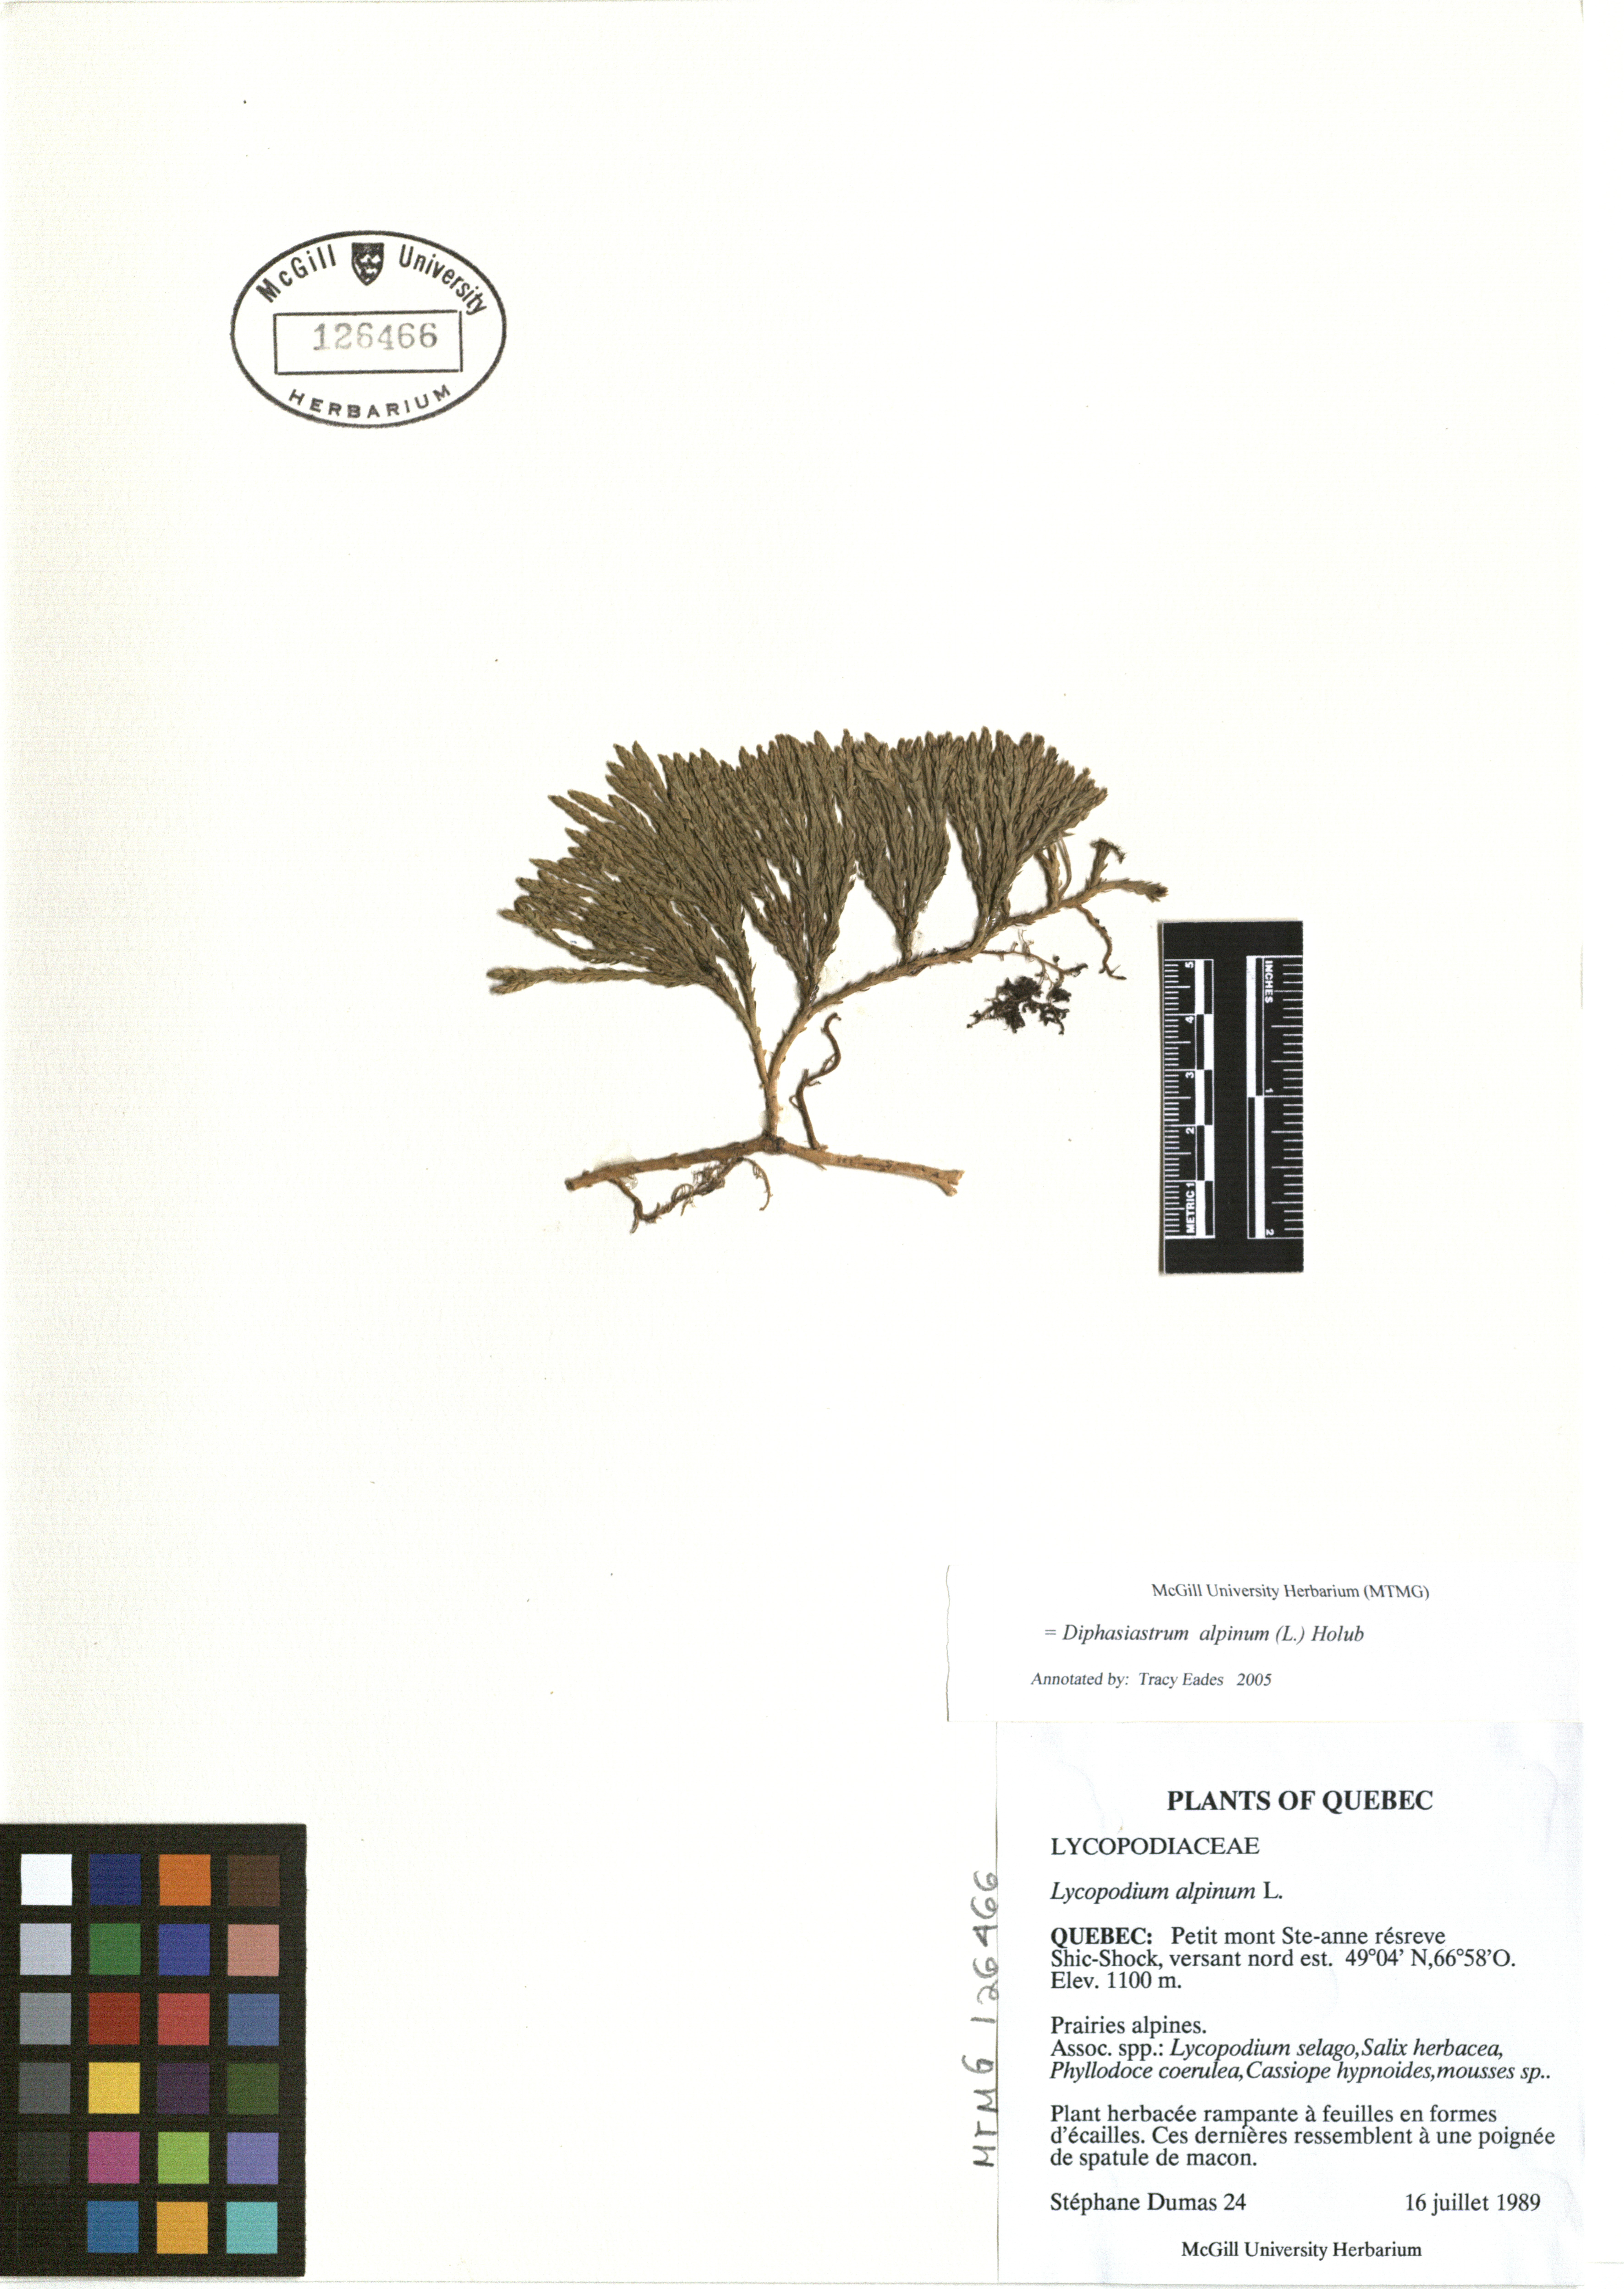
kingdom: Plantae
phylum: Tracheophyta
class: Lycopodiopsida
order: Lycopodiales
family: Lycopodiaceae
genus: Diphasiastrum
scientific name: Diphasiastrum alpinum
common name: Alpine clubmoss
